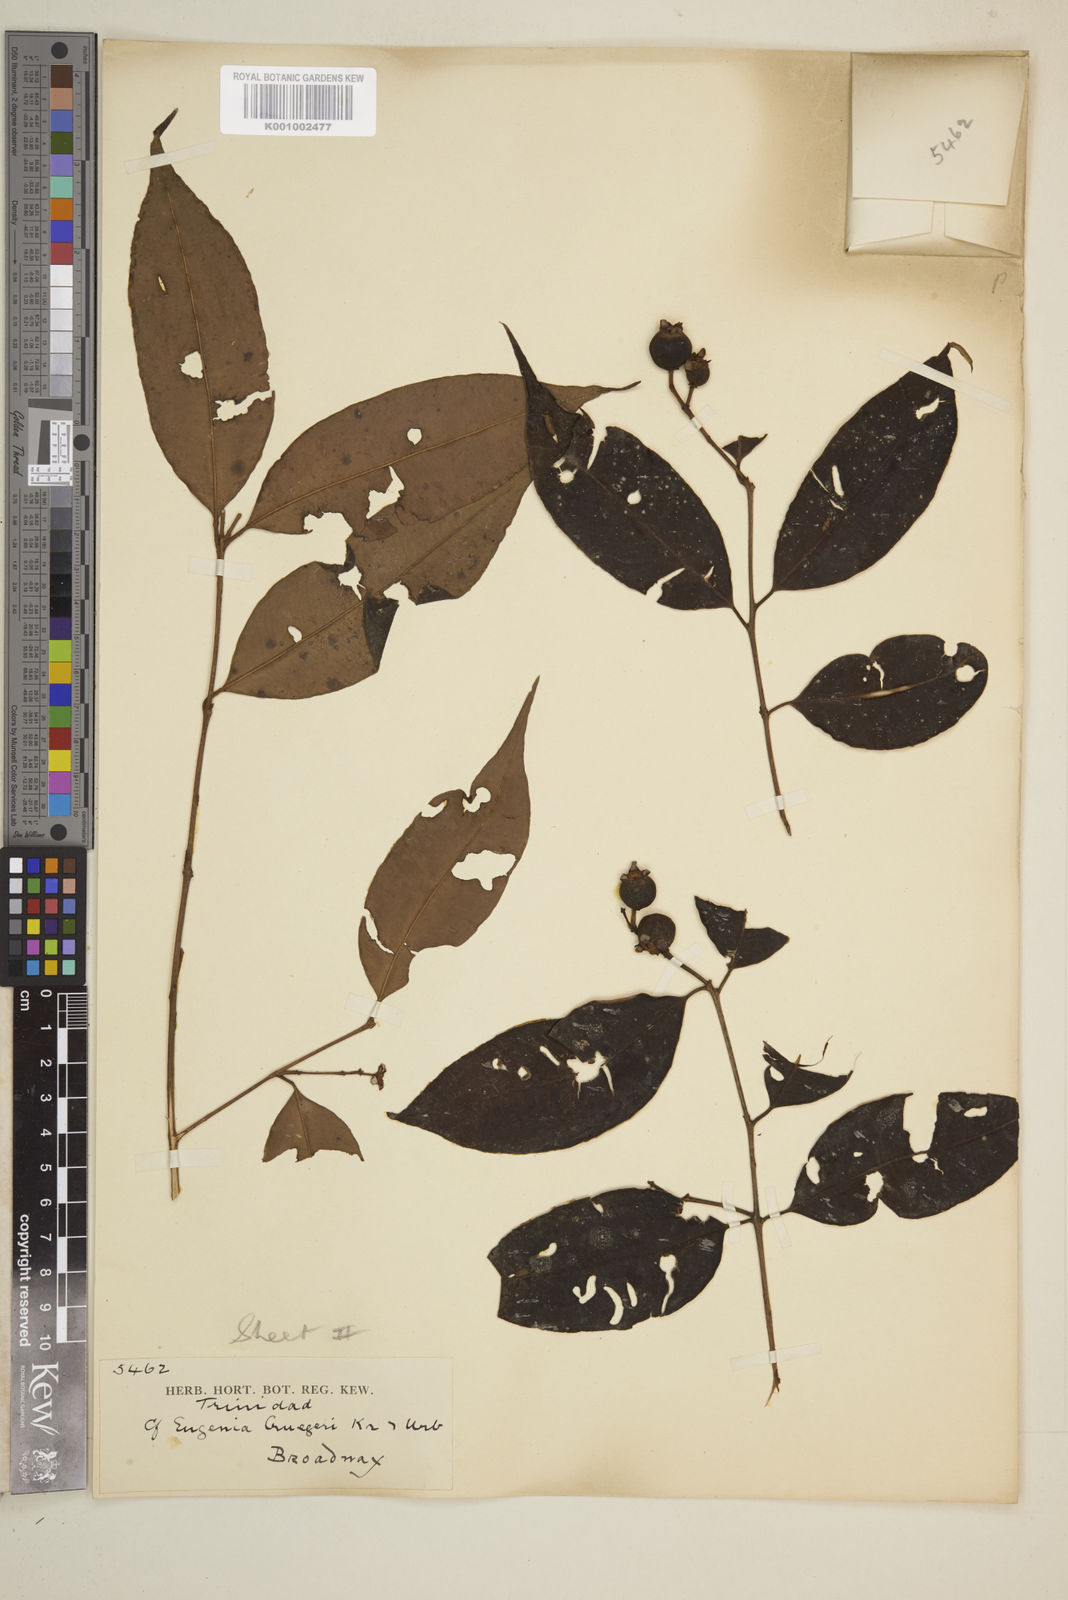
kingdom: Plantae
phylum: Tracheophyta
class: Magnoliopsida
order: Myrtales
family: Myrtaceae
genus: Eugenia
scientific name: Eugenia limbosa
